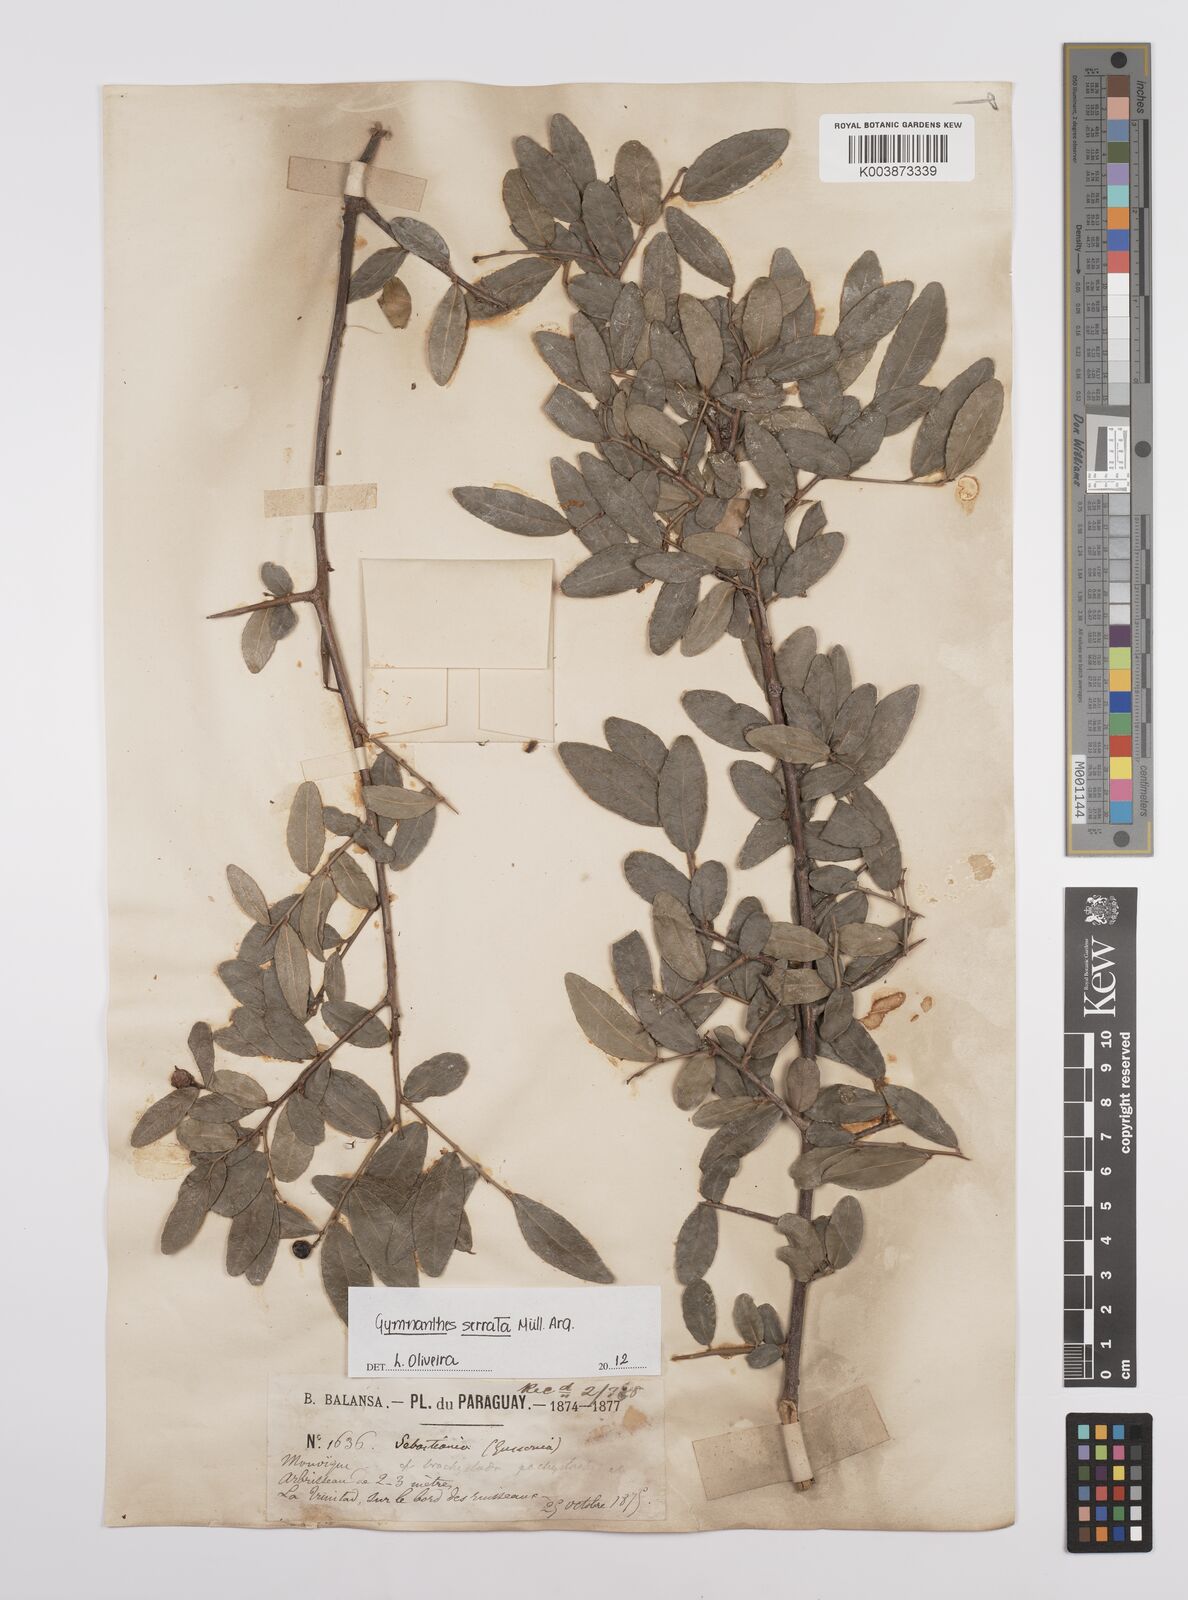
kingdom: Plantae
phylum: Tracheophyta
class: Magnoliopsida
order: Malpighiales
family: Euphorbiaceae
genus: Sebastiania
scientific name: Sebastiania serrata
